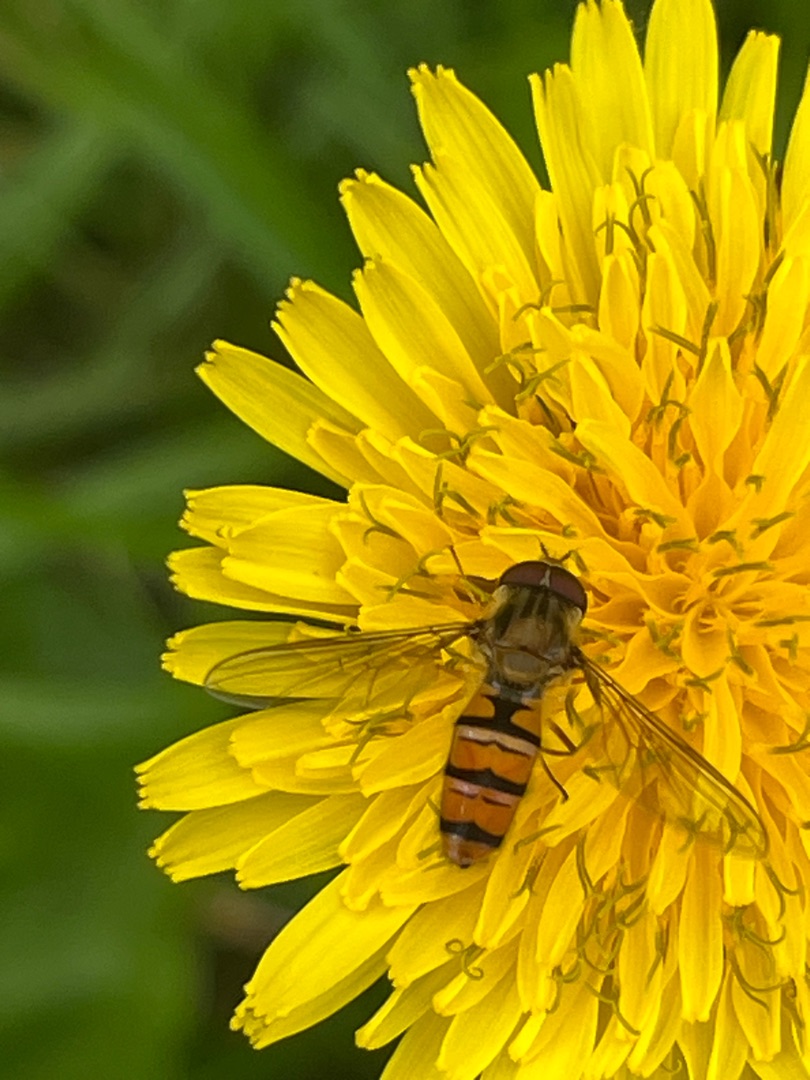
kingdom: Animalia
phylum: Arthropoda
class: Insecta
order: Diptera
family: Syrphidae
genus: Episyrphus
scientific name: Episyrphus balteatus
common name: Dobbeltbåndet svirreflue
